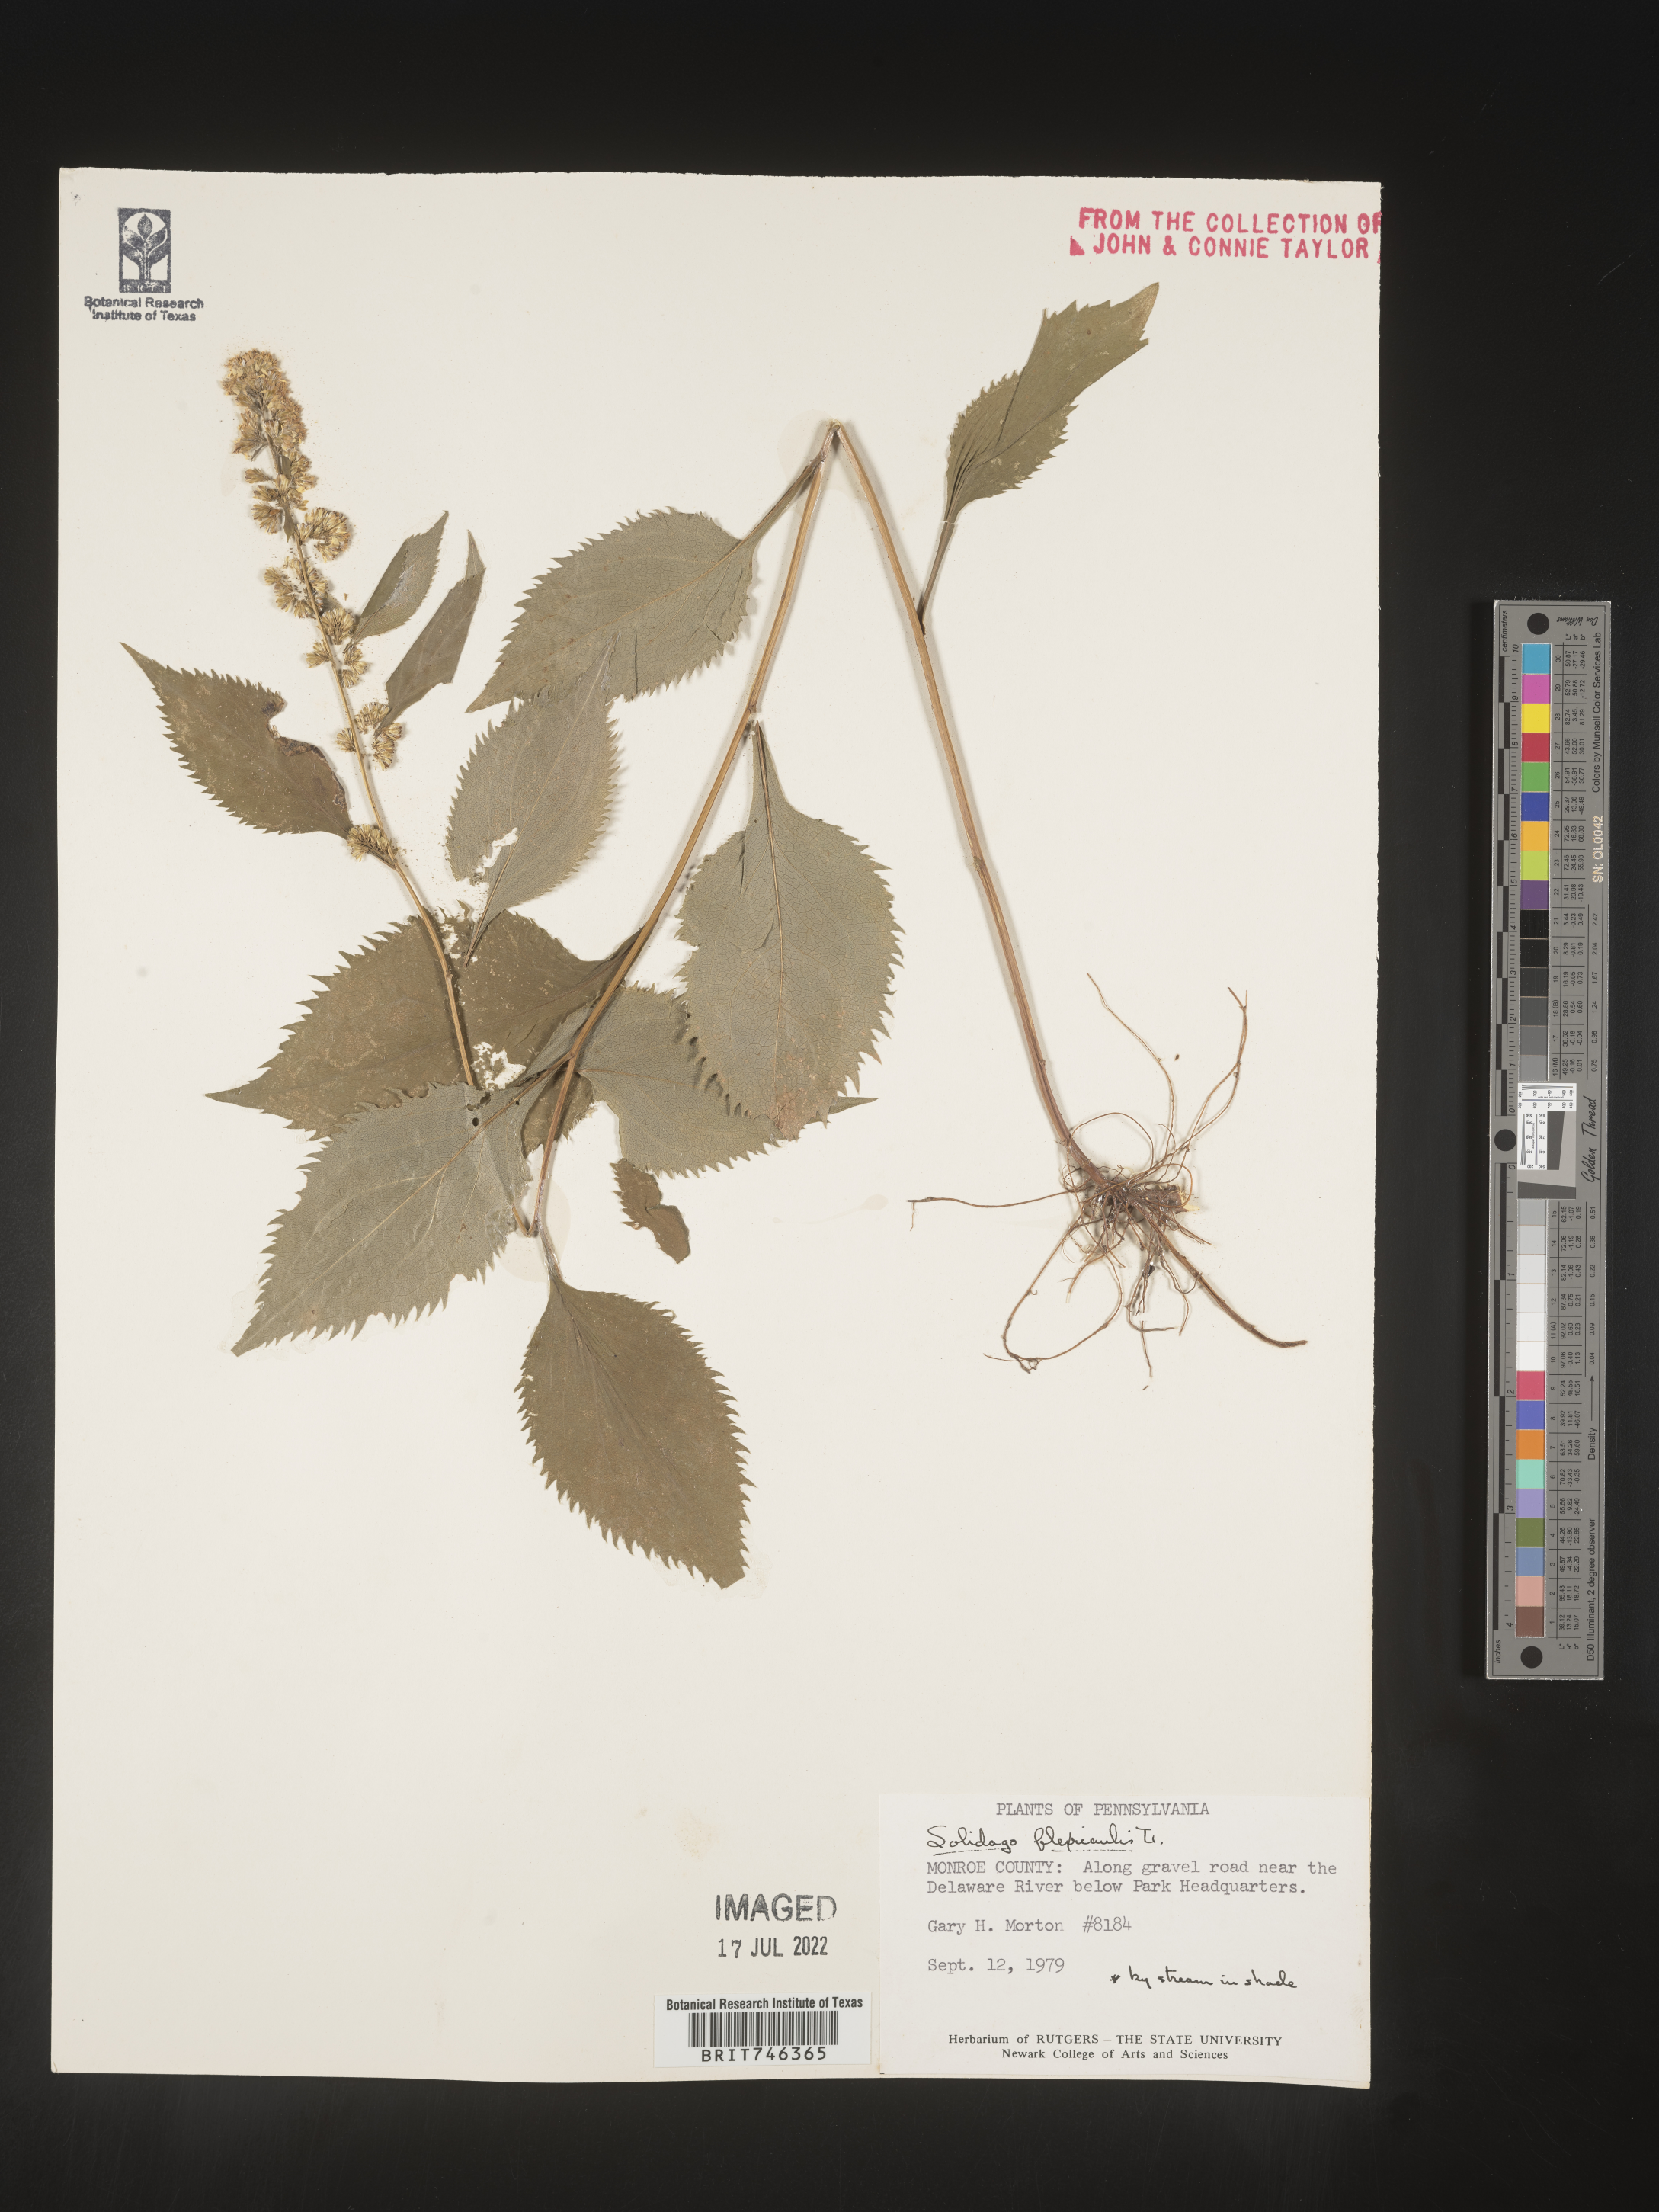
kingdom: Plantae
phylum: Tracheophyta
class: Magnoliopsida
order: Asterales
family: Asteraceae
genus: Solidago
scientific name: Solidago flexicaulis
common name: Zig-zag goldenrod
